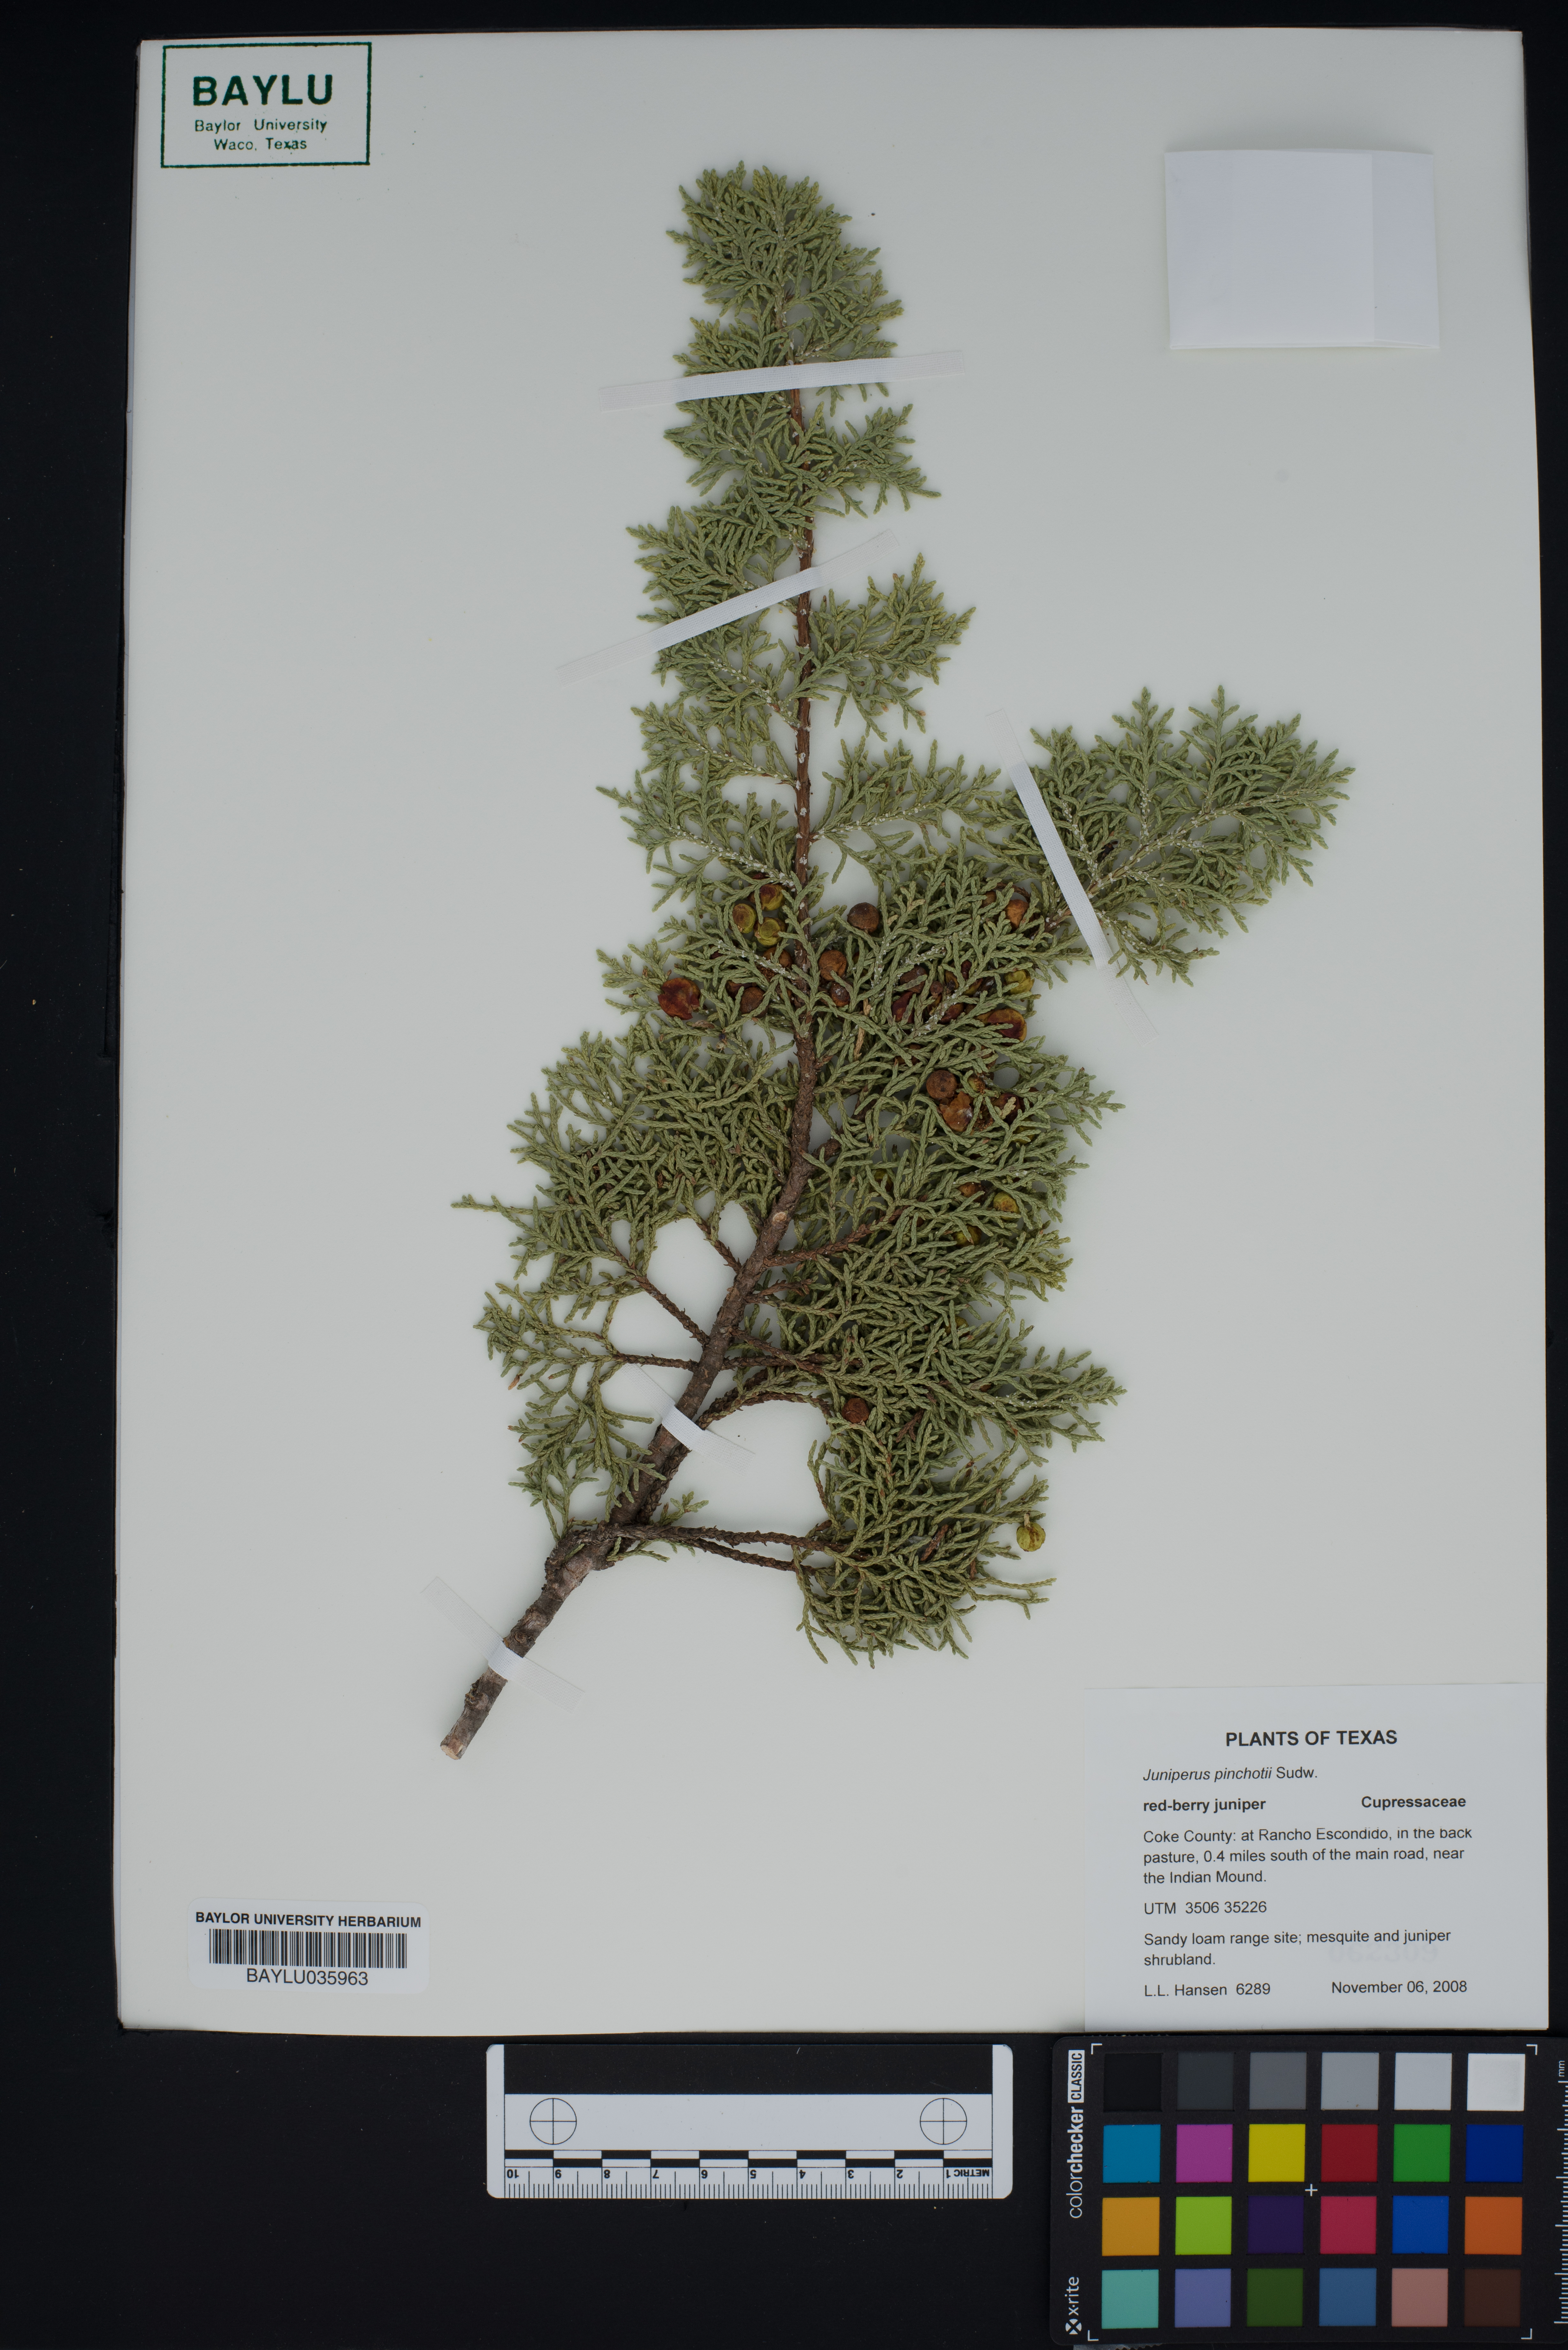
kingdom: Plantae
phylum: Tracheophyta
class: Pinopsida
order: Pinales
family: Cupressaceae
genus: Juniperus
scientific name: Juniperus pinchotii
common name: Pinchot juniper
